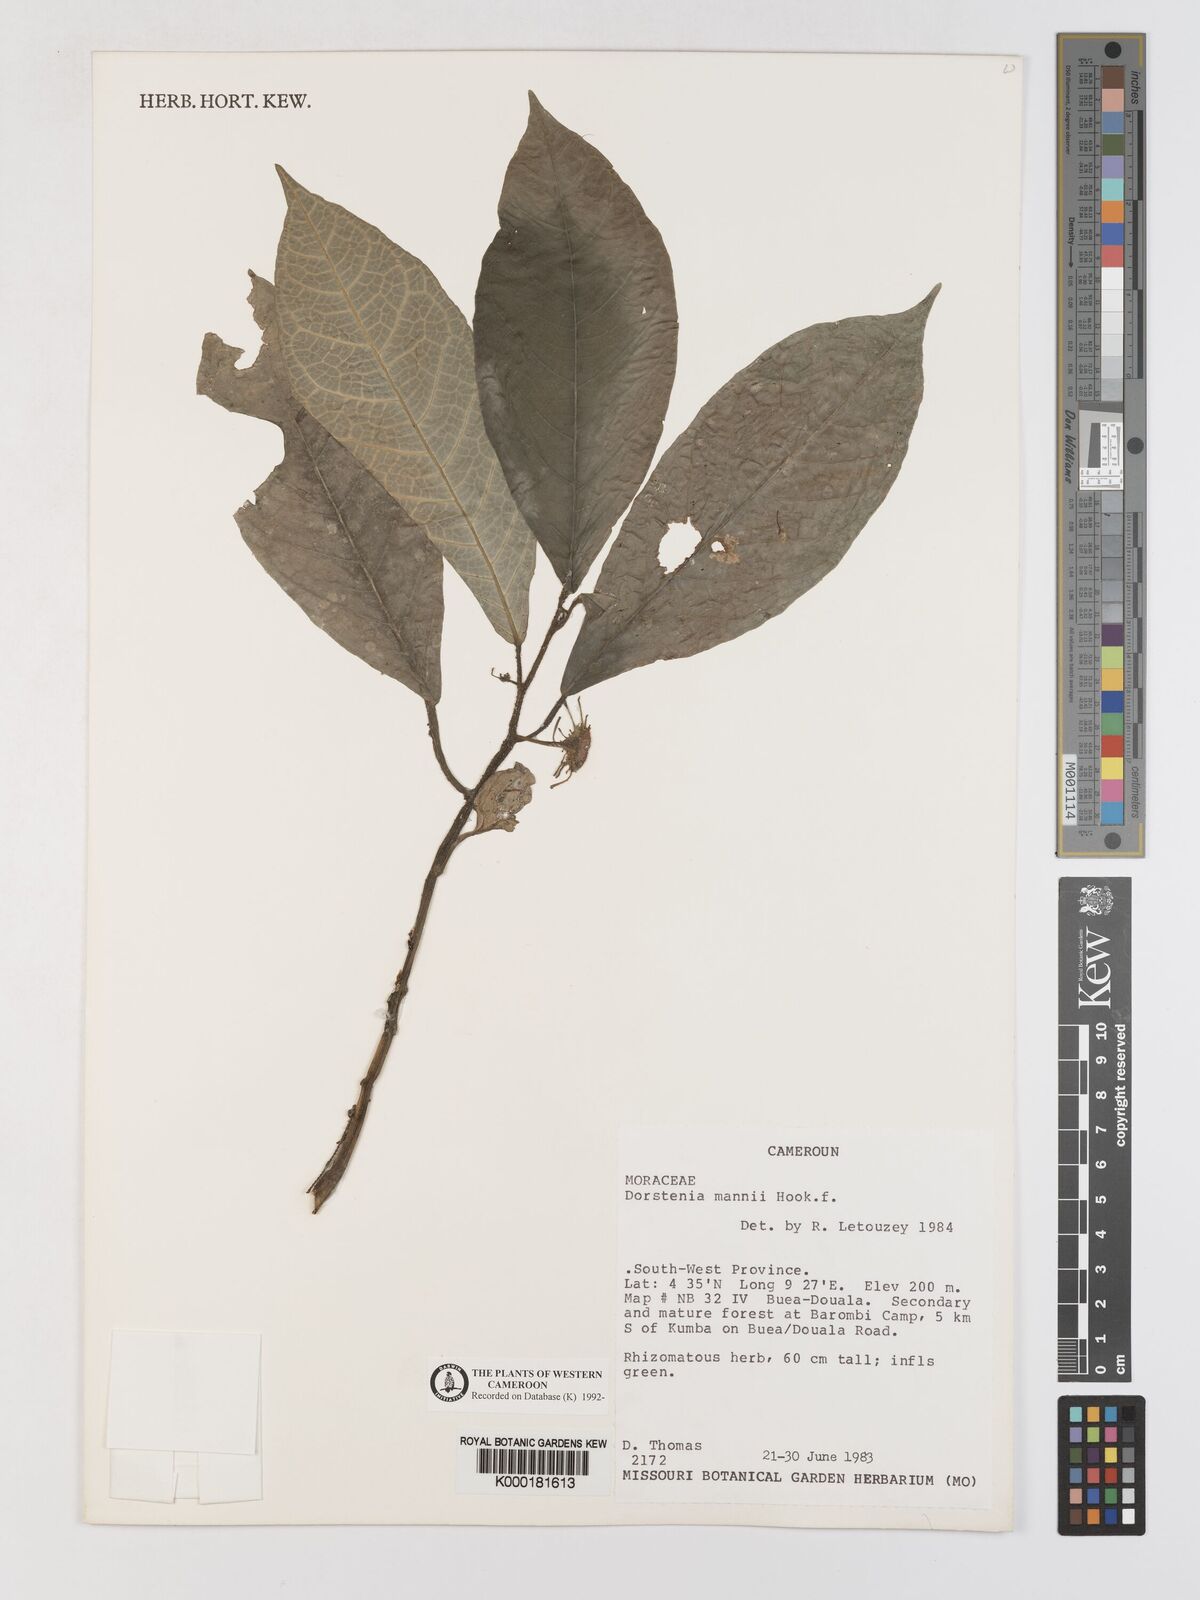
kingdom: Plantae
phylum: Tracheophyta
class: Magnoliopsida
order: Rosales
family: Moraceae
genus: Dorstenia
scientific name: Dorstenia mannii
